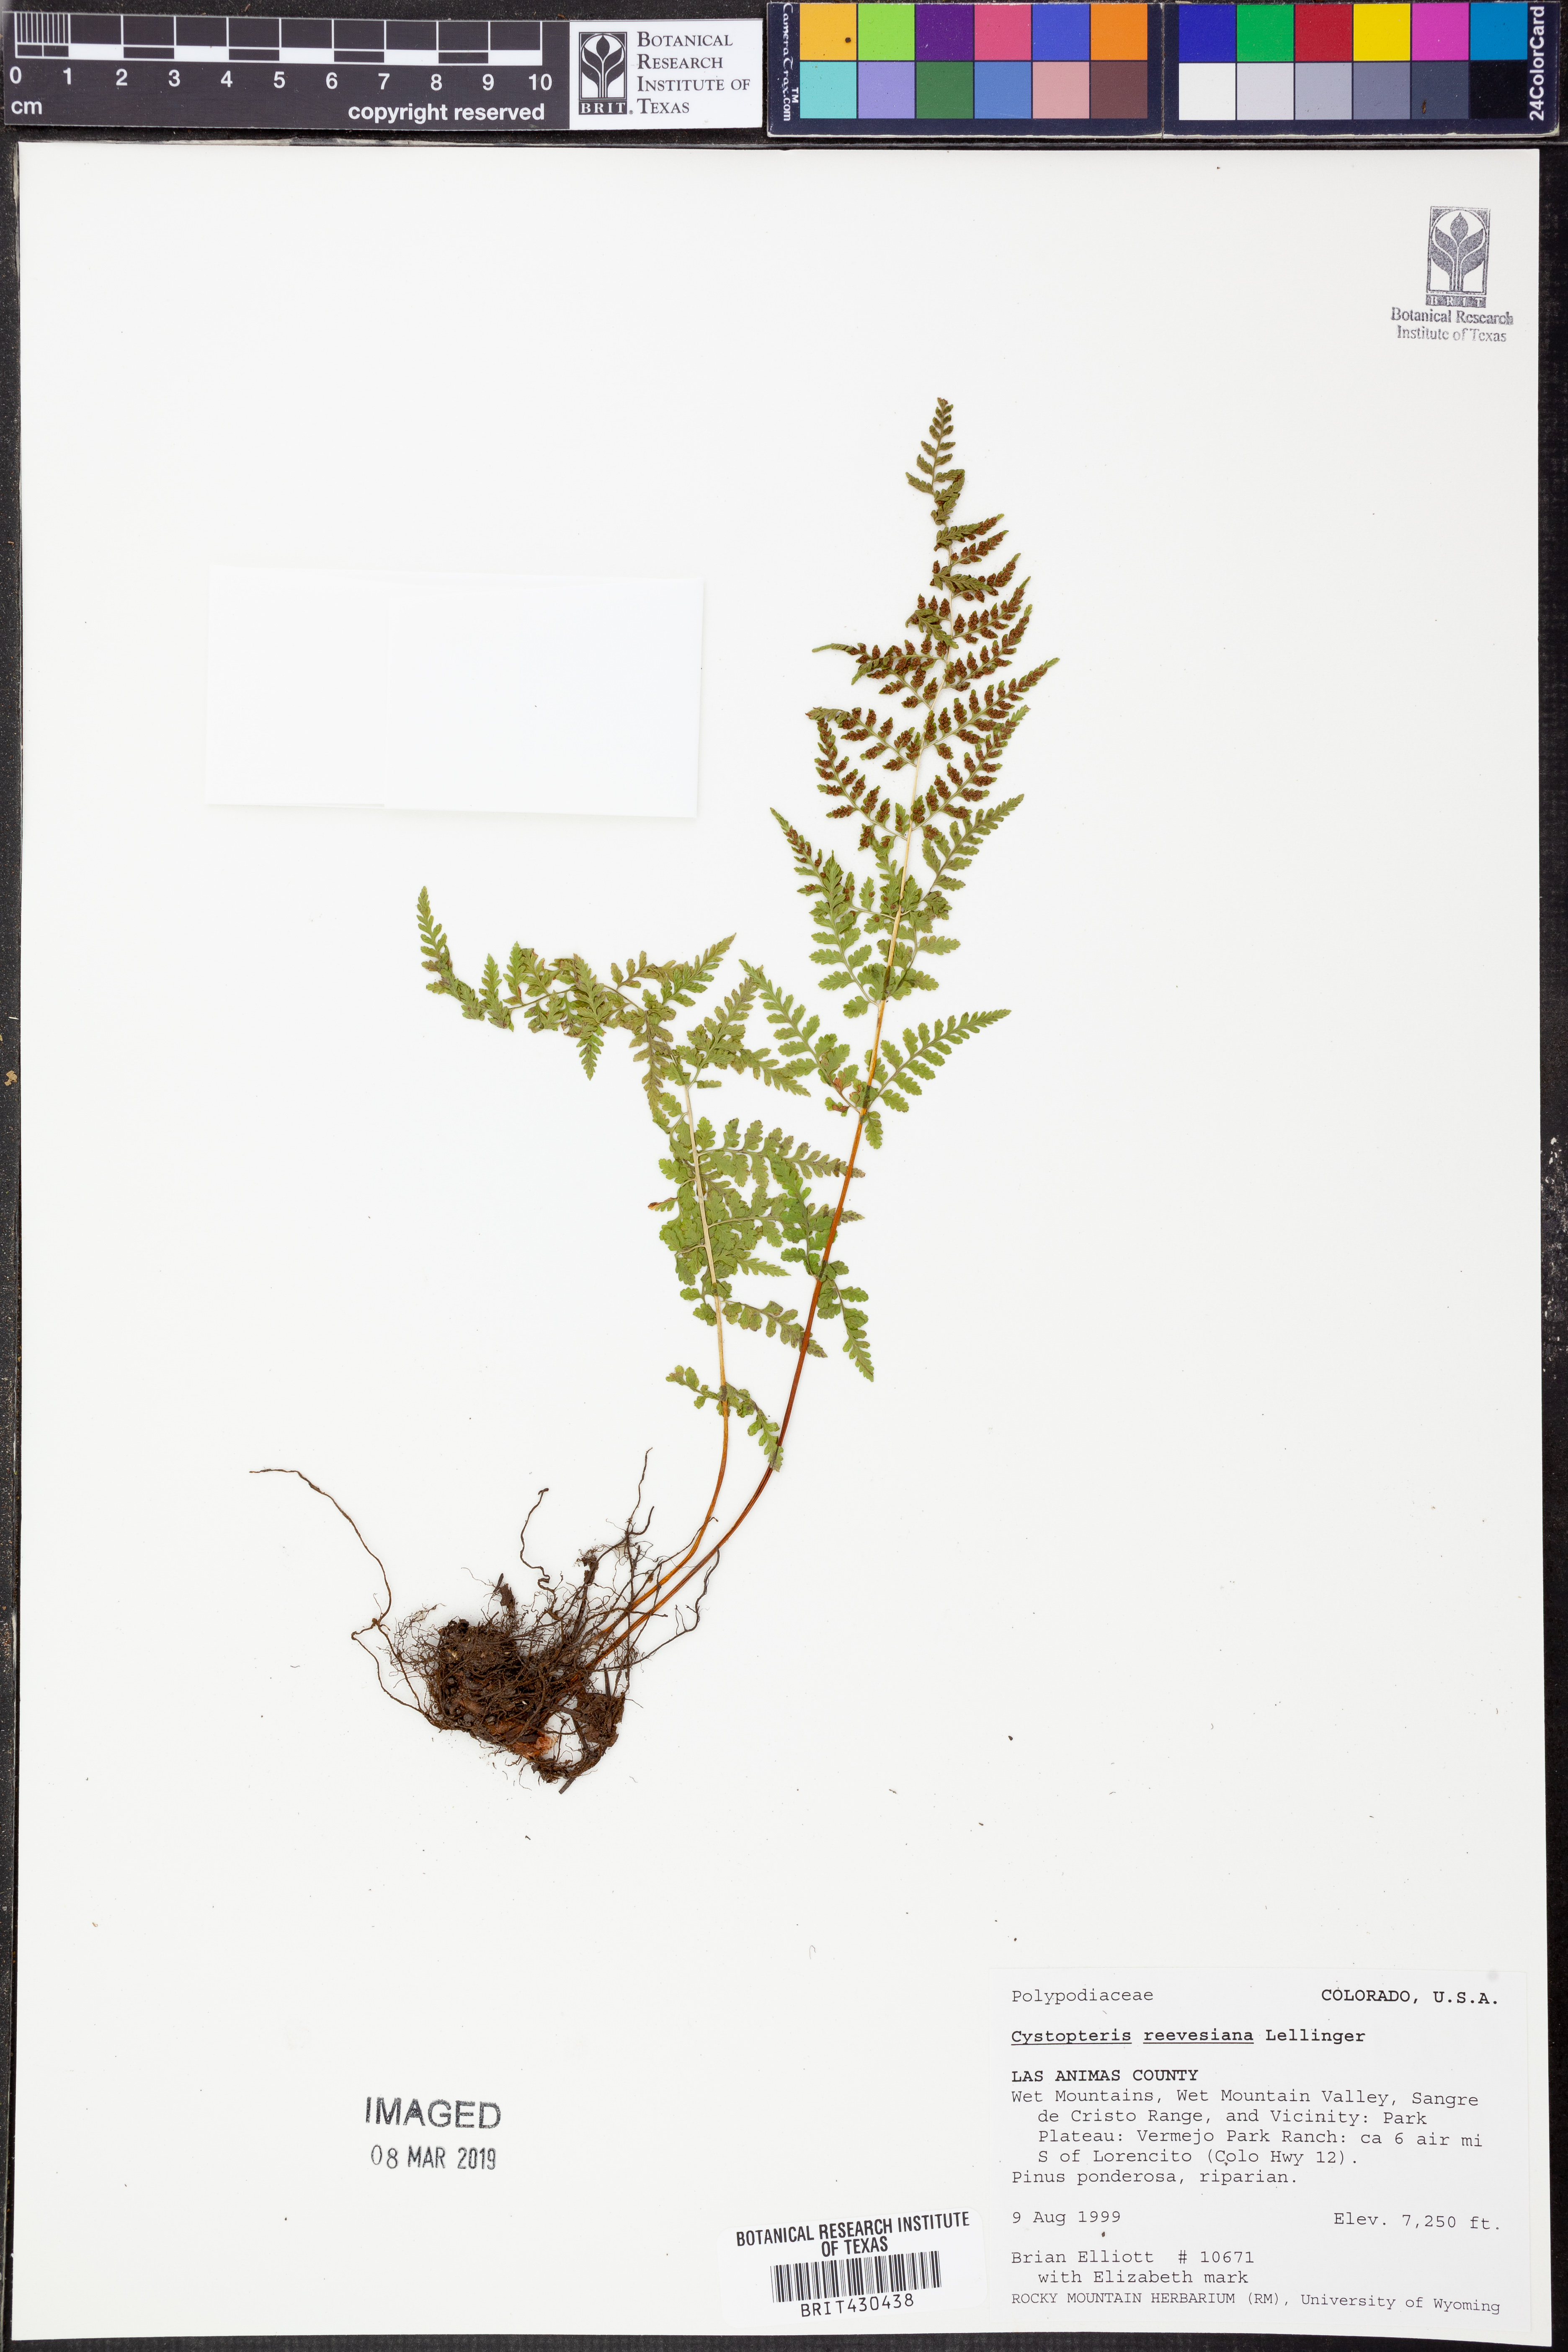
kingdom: Plantae
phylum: Tracheophyta
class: Polypodiopsida
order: Polypodiales
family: Cystopteridaceae
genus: Cystopteris
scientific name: Cystopteris reevesiana
